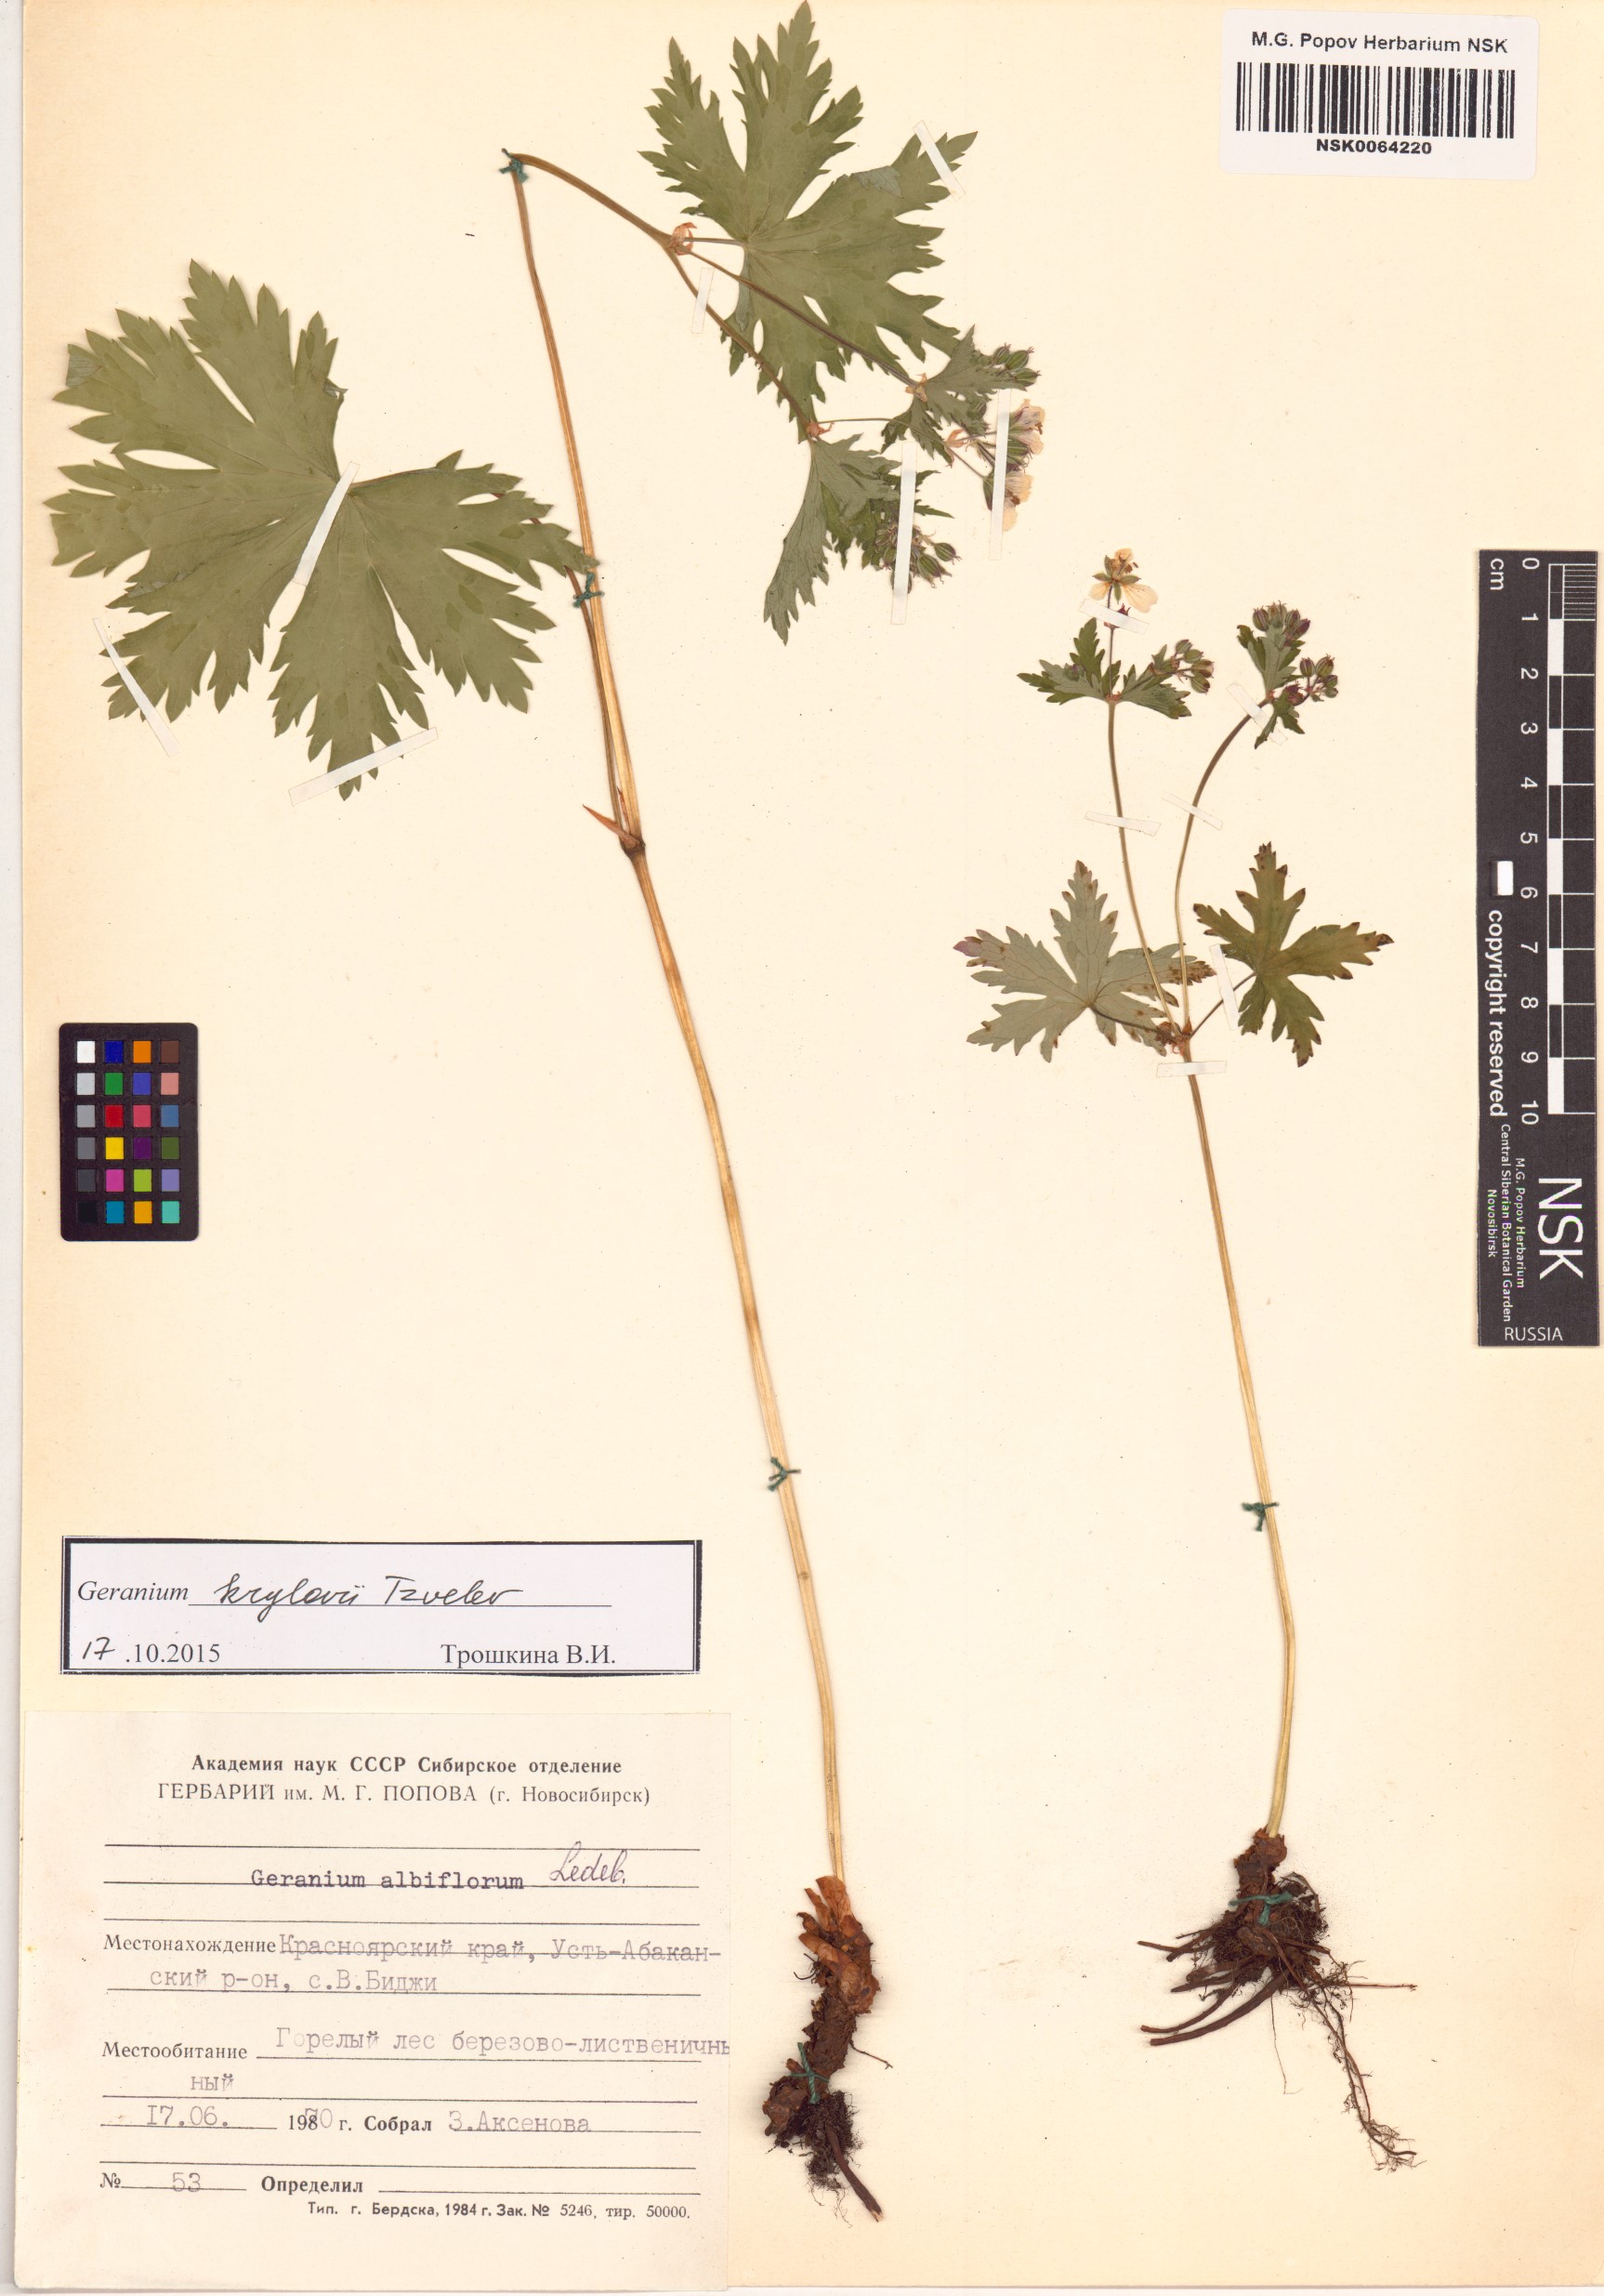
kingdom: Plantae
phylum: Tracheophyta
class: Magnoliopsida
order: Geraniales
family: Geraniaceae
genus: Geranium
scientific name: Geranium sylvaticum
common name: Wood crane's-bill
